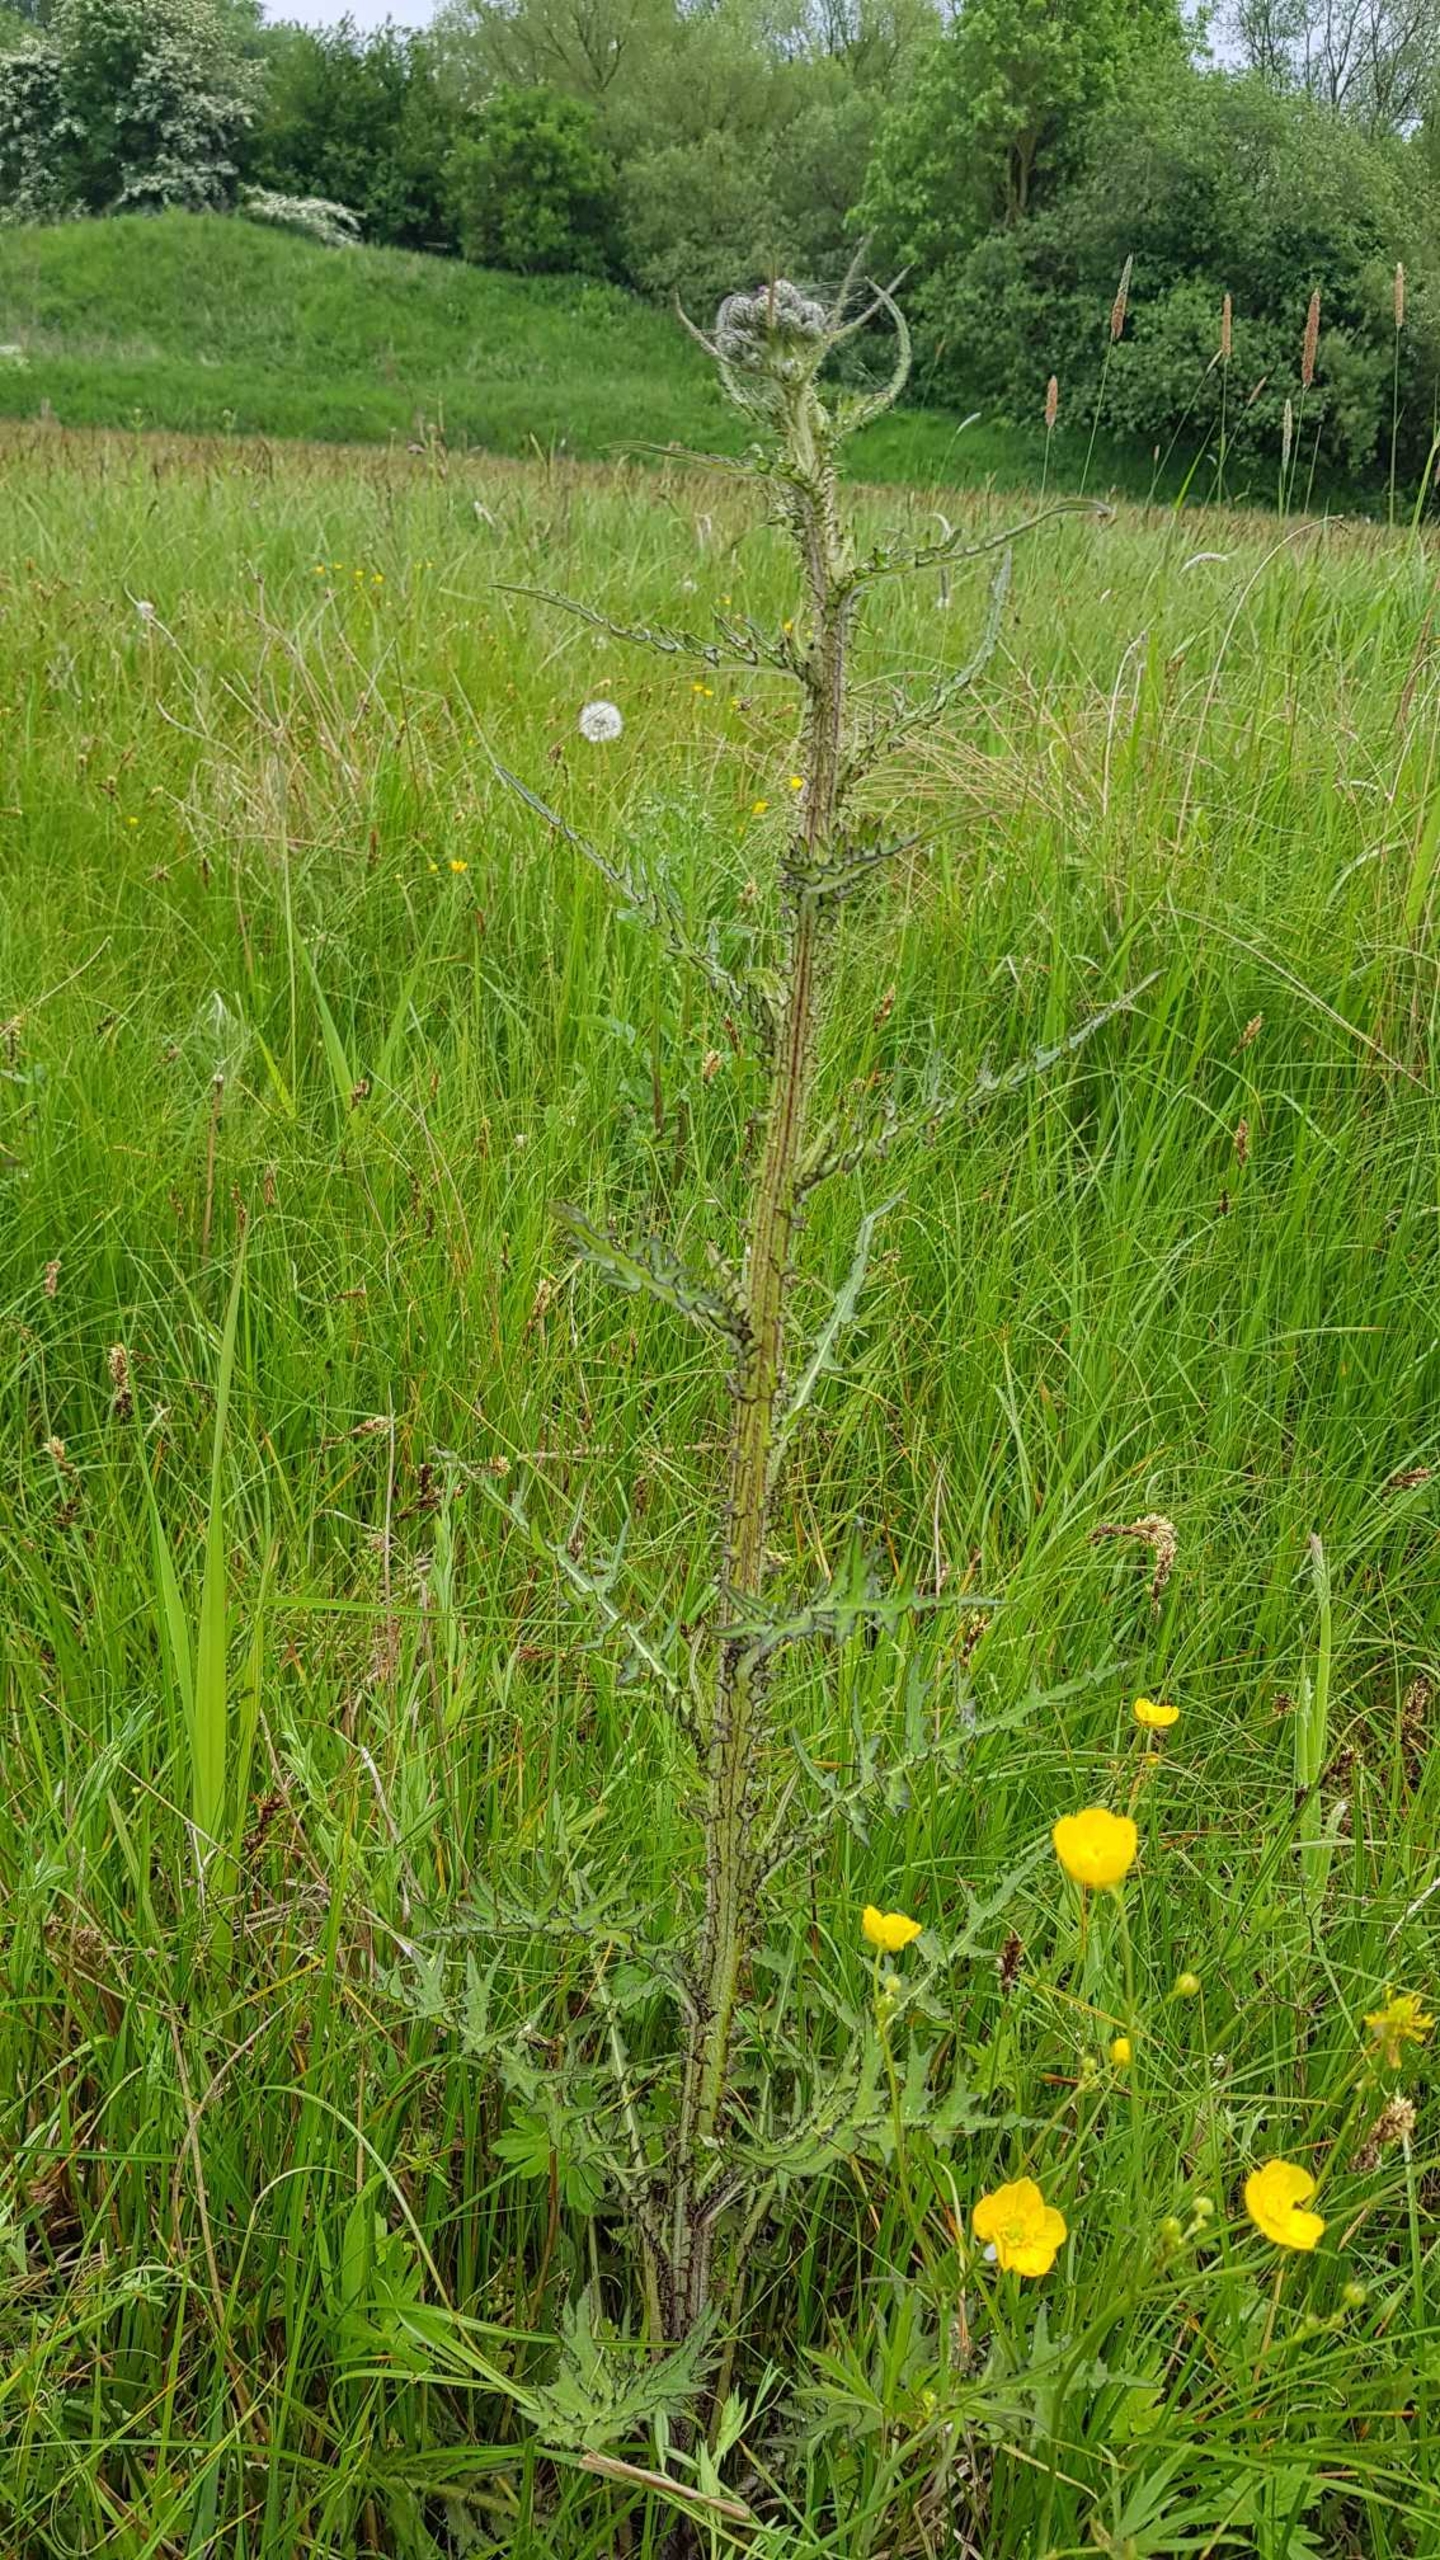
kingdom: Plantae
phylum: Tracheophyta
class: Magnoliopsida
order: Asterales
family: Asteraceae
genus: Cirsium
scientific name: Cirsium palustre
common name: Kær-tidsel
